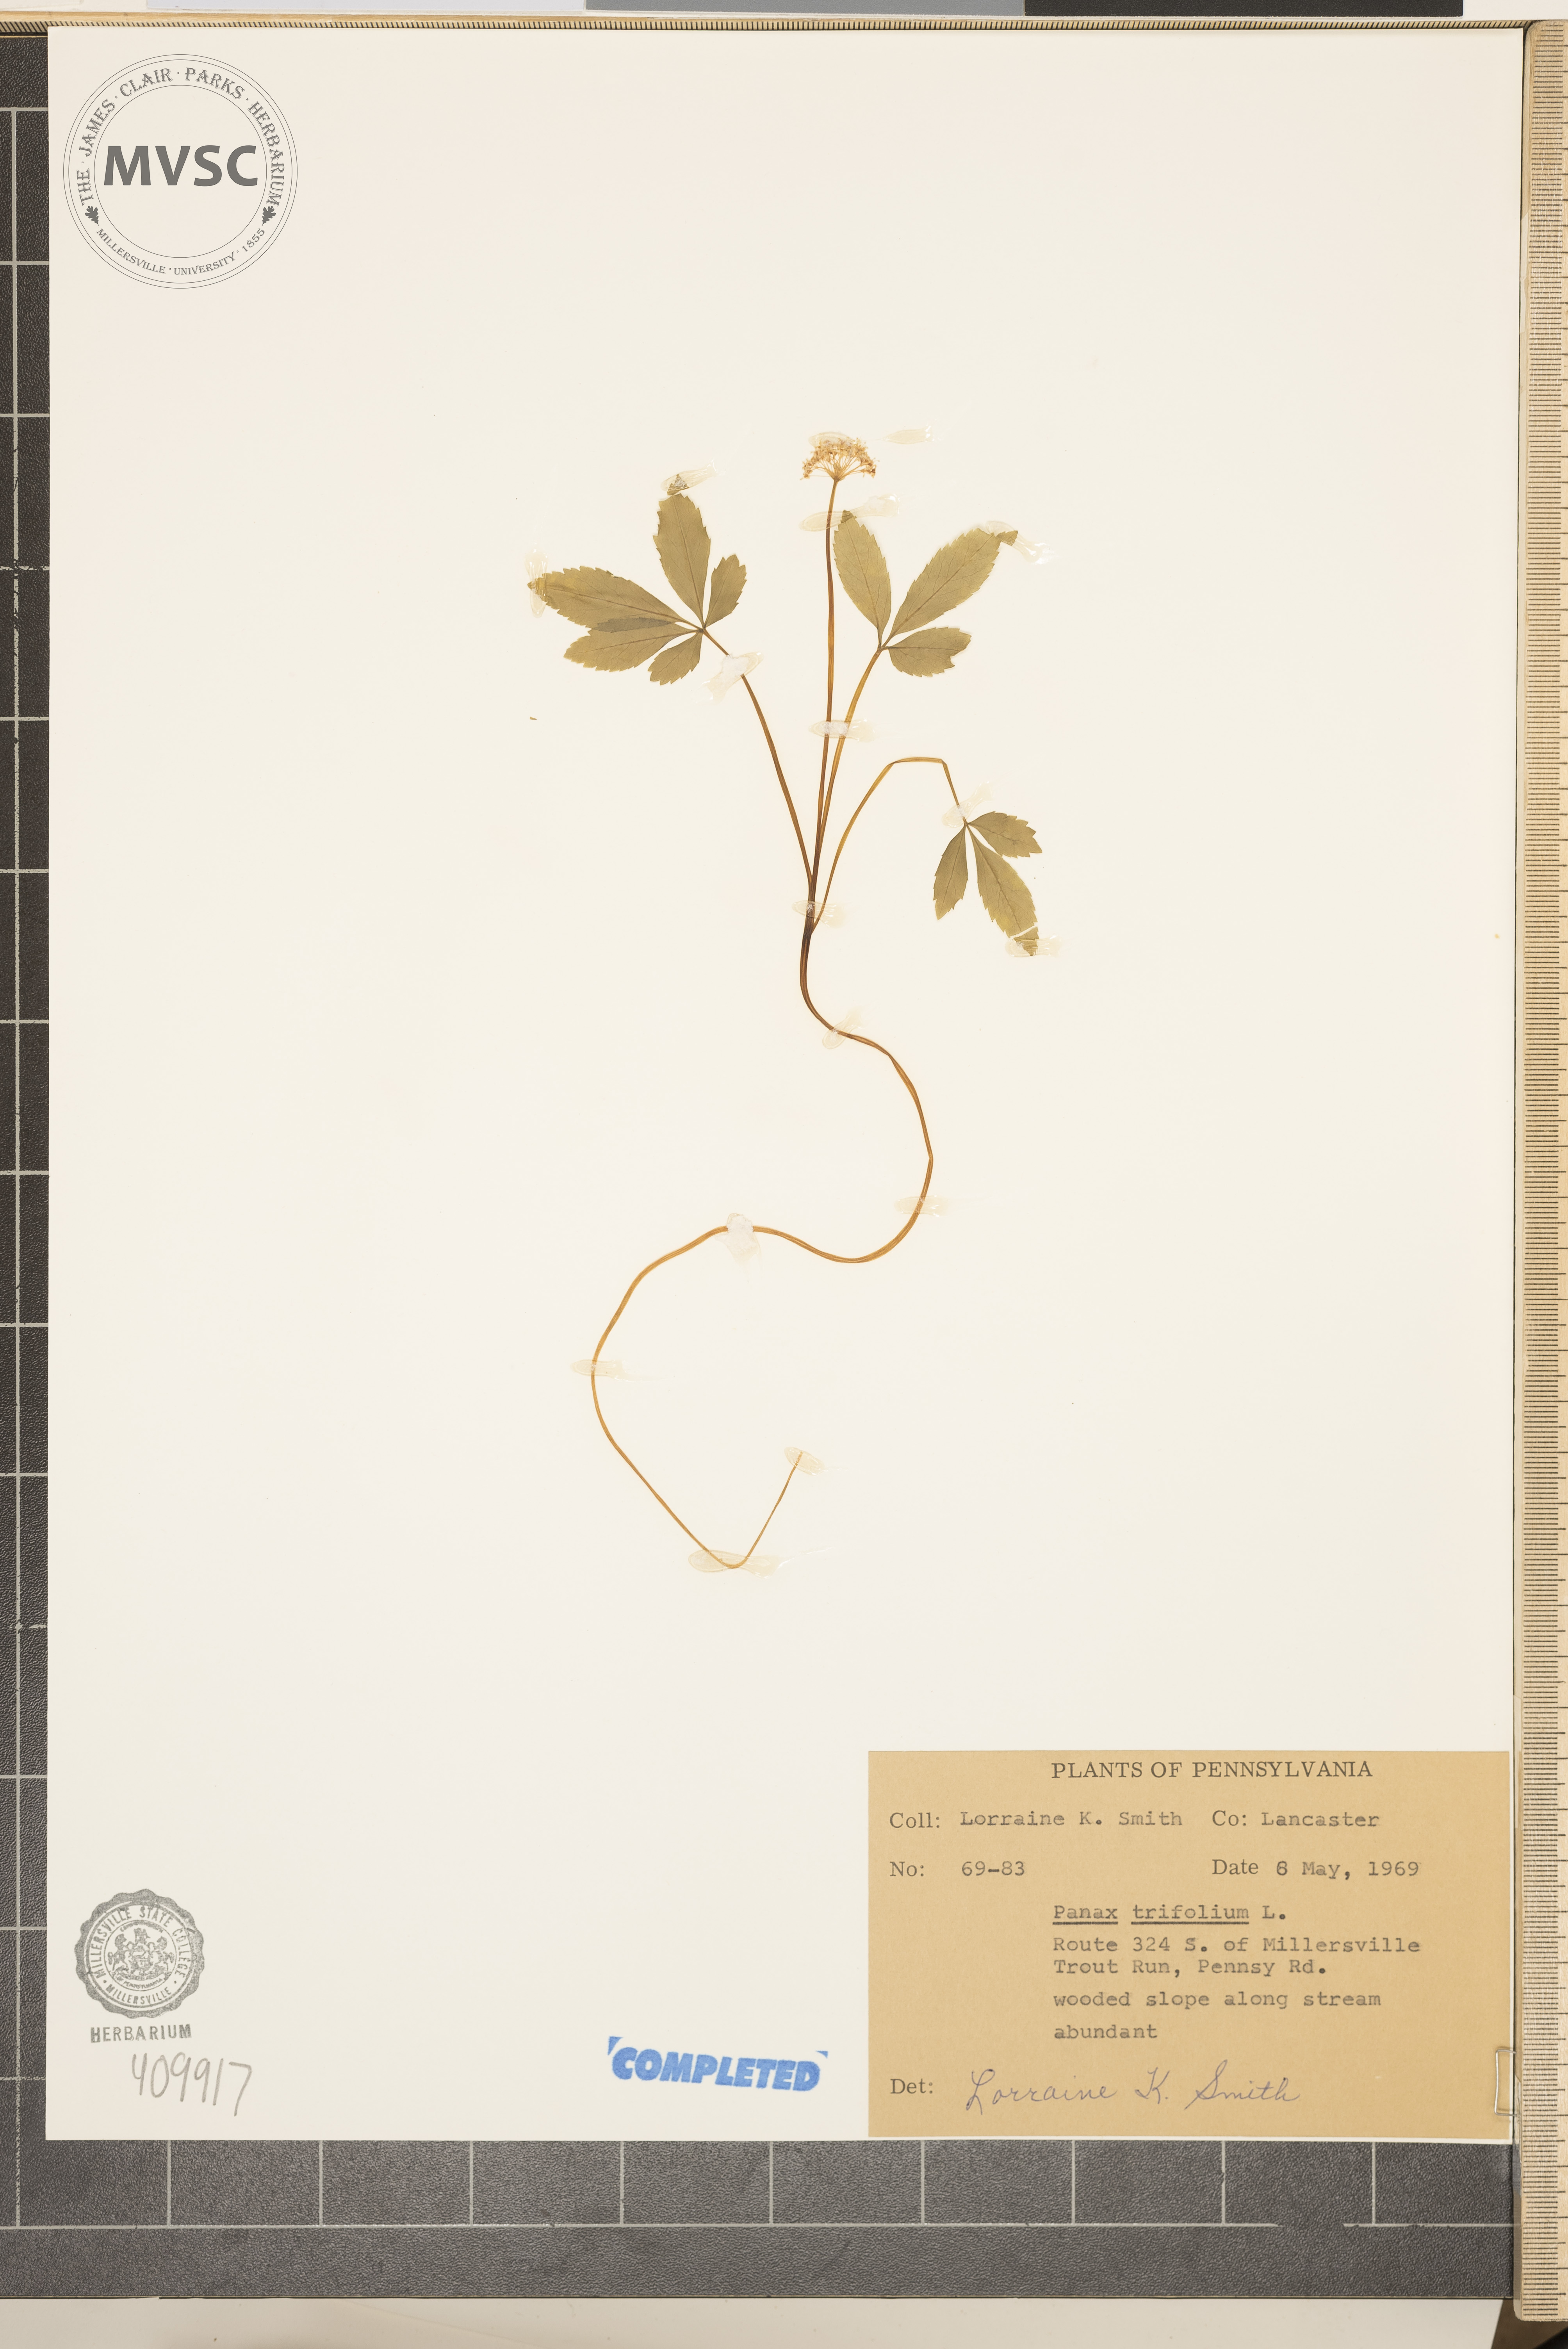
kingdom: Plantae
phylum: Tracheophyta
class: Magnoliopsida
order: Apiales
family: Araliaceae
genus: Panax
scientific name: Panax trifolius
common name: Dwarf ginseng
